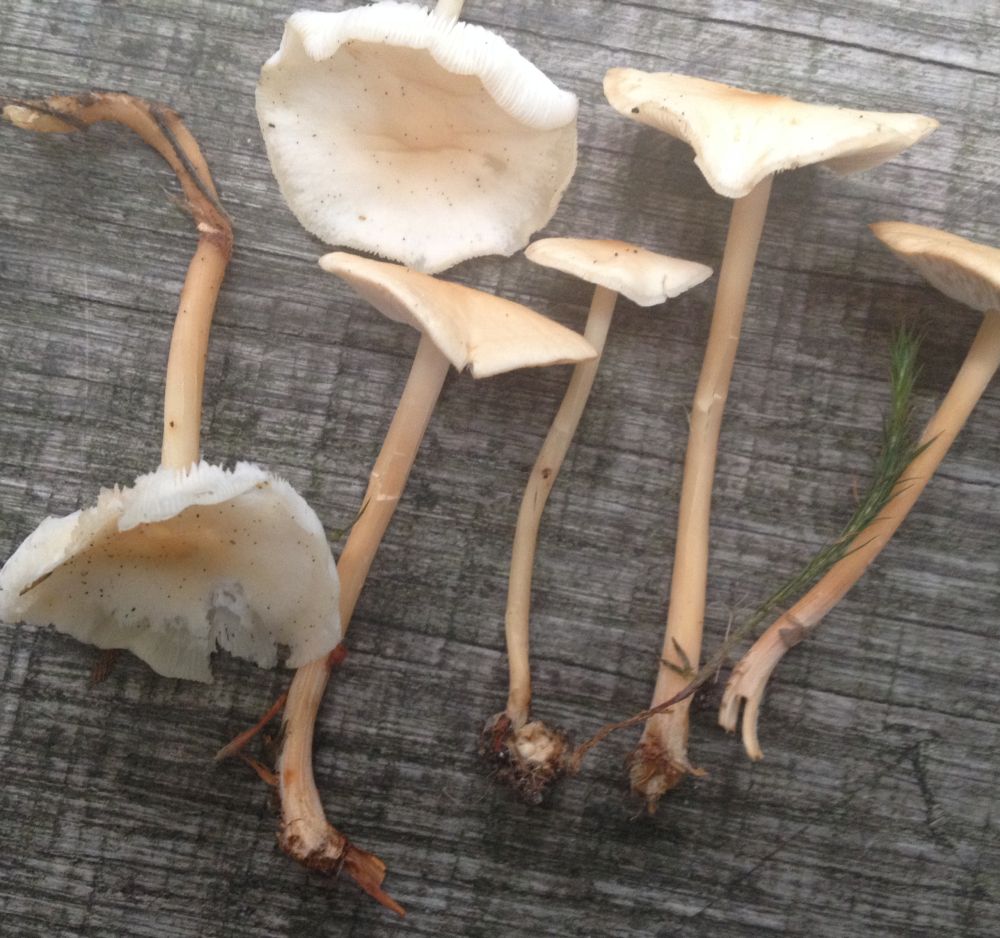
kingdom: Fungi
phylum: Basidiomycota
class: Agaricomycetes
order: Agaricales
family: Omphalotaceae
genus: Gymnopus
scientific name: Gymnopus dryophilus
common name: løv-fladhat
